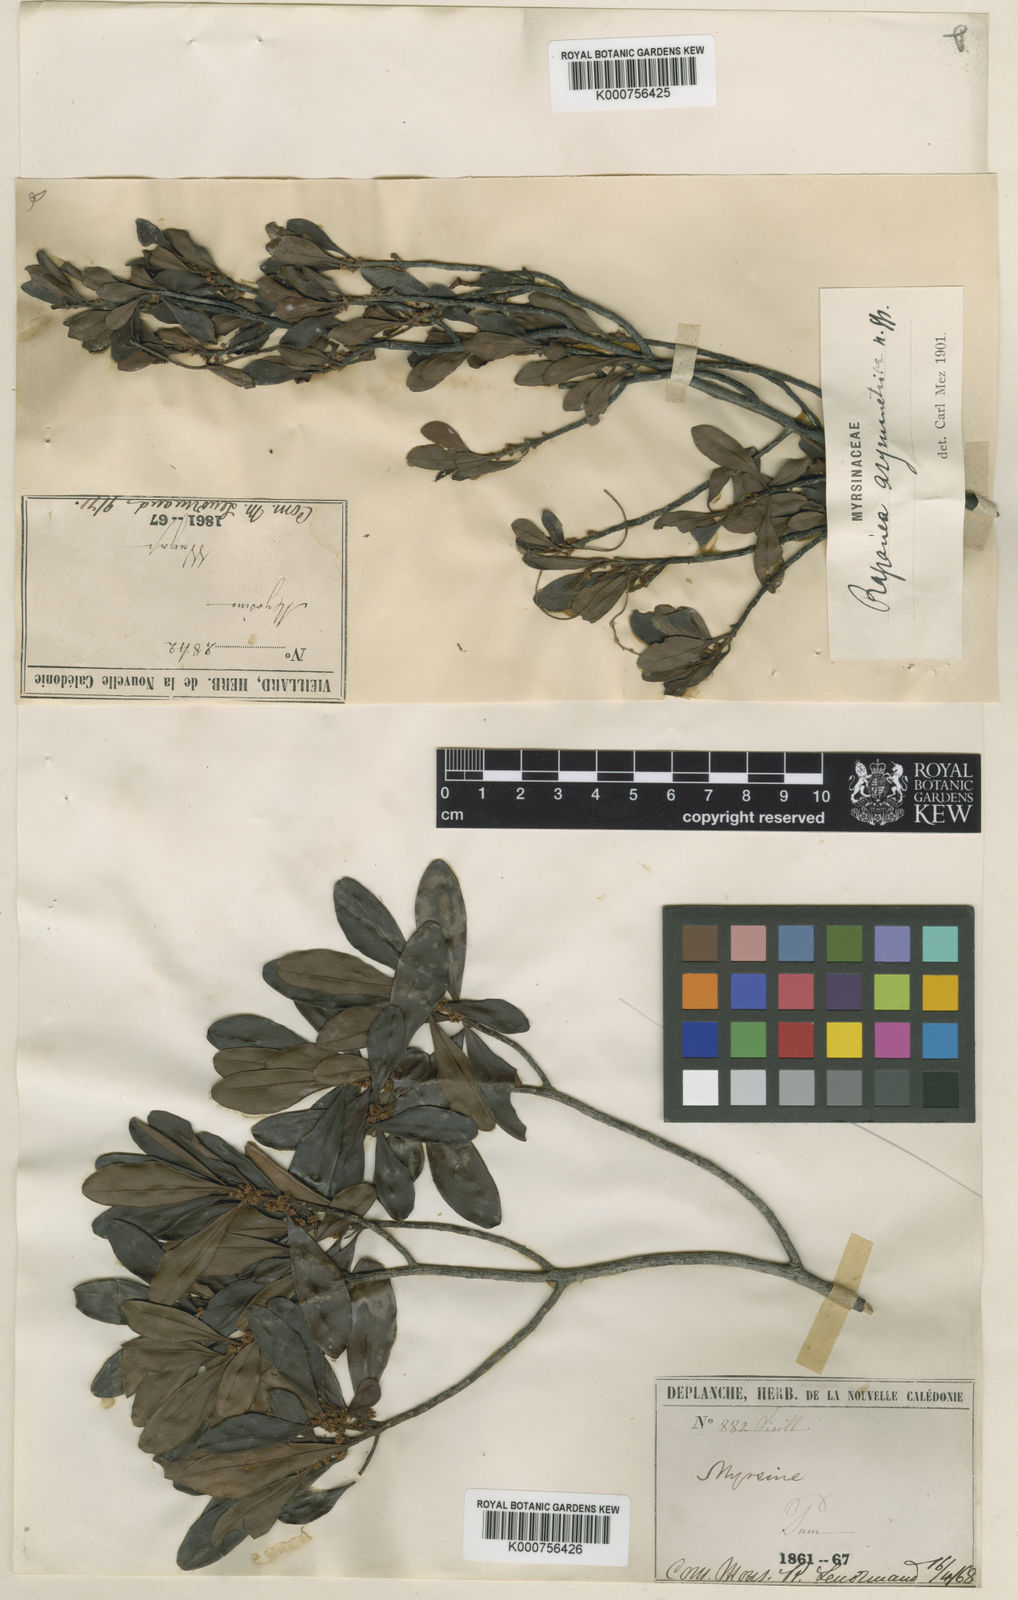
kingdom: Plantae
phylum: Tracheophyta
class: Magnoliopsida
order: Ericales
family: Primulaceae
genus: Myrsine
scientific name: Myrsine asymmetrica
